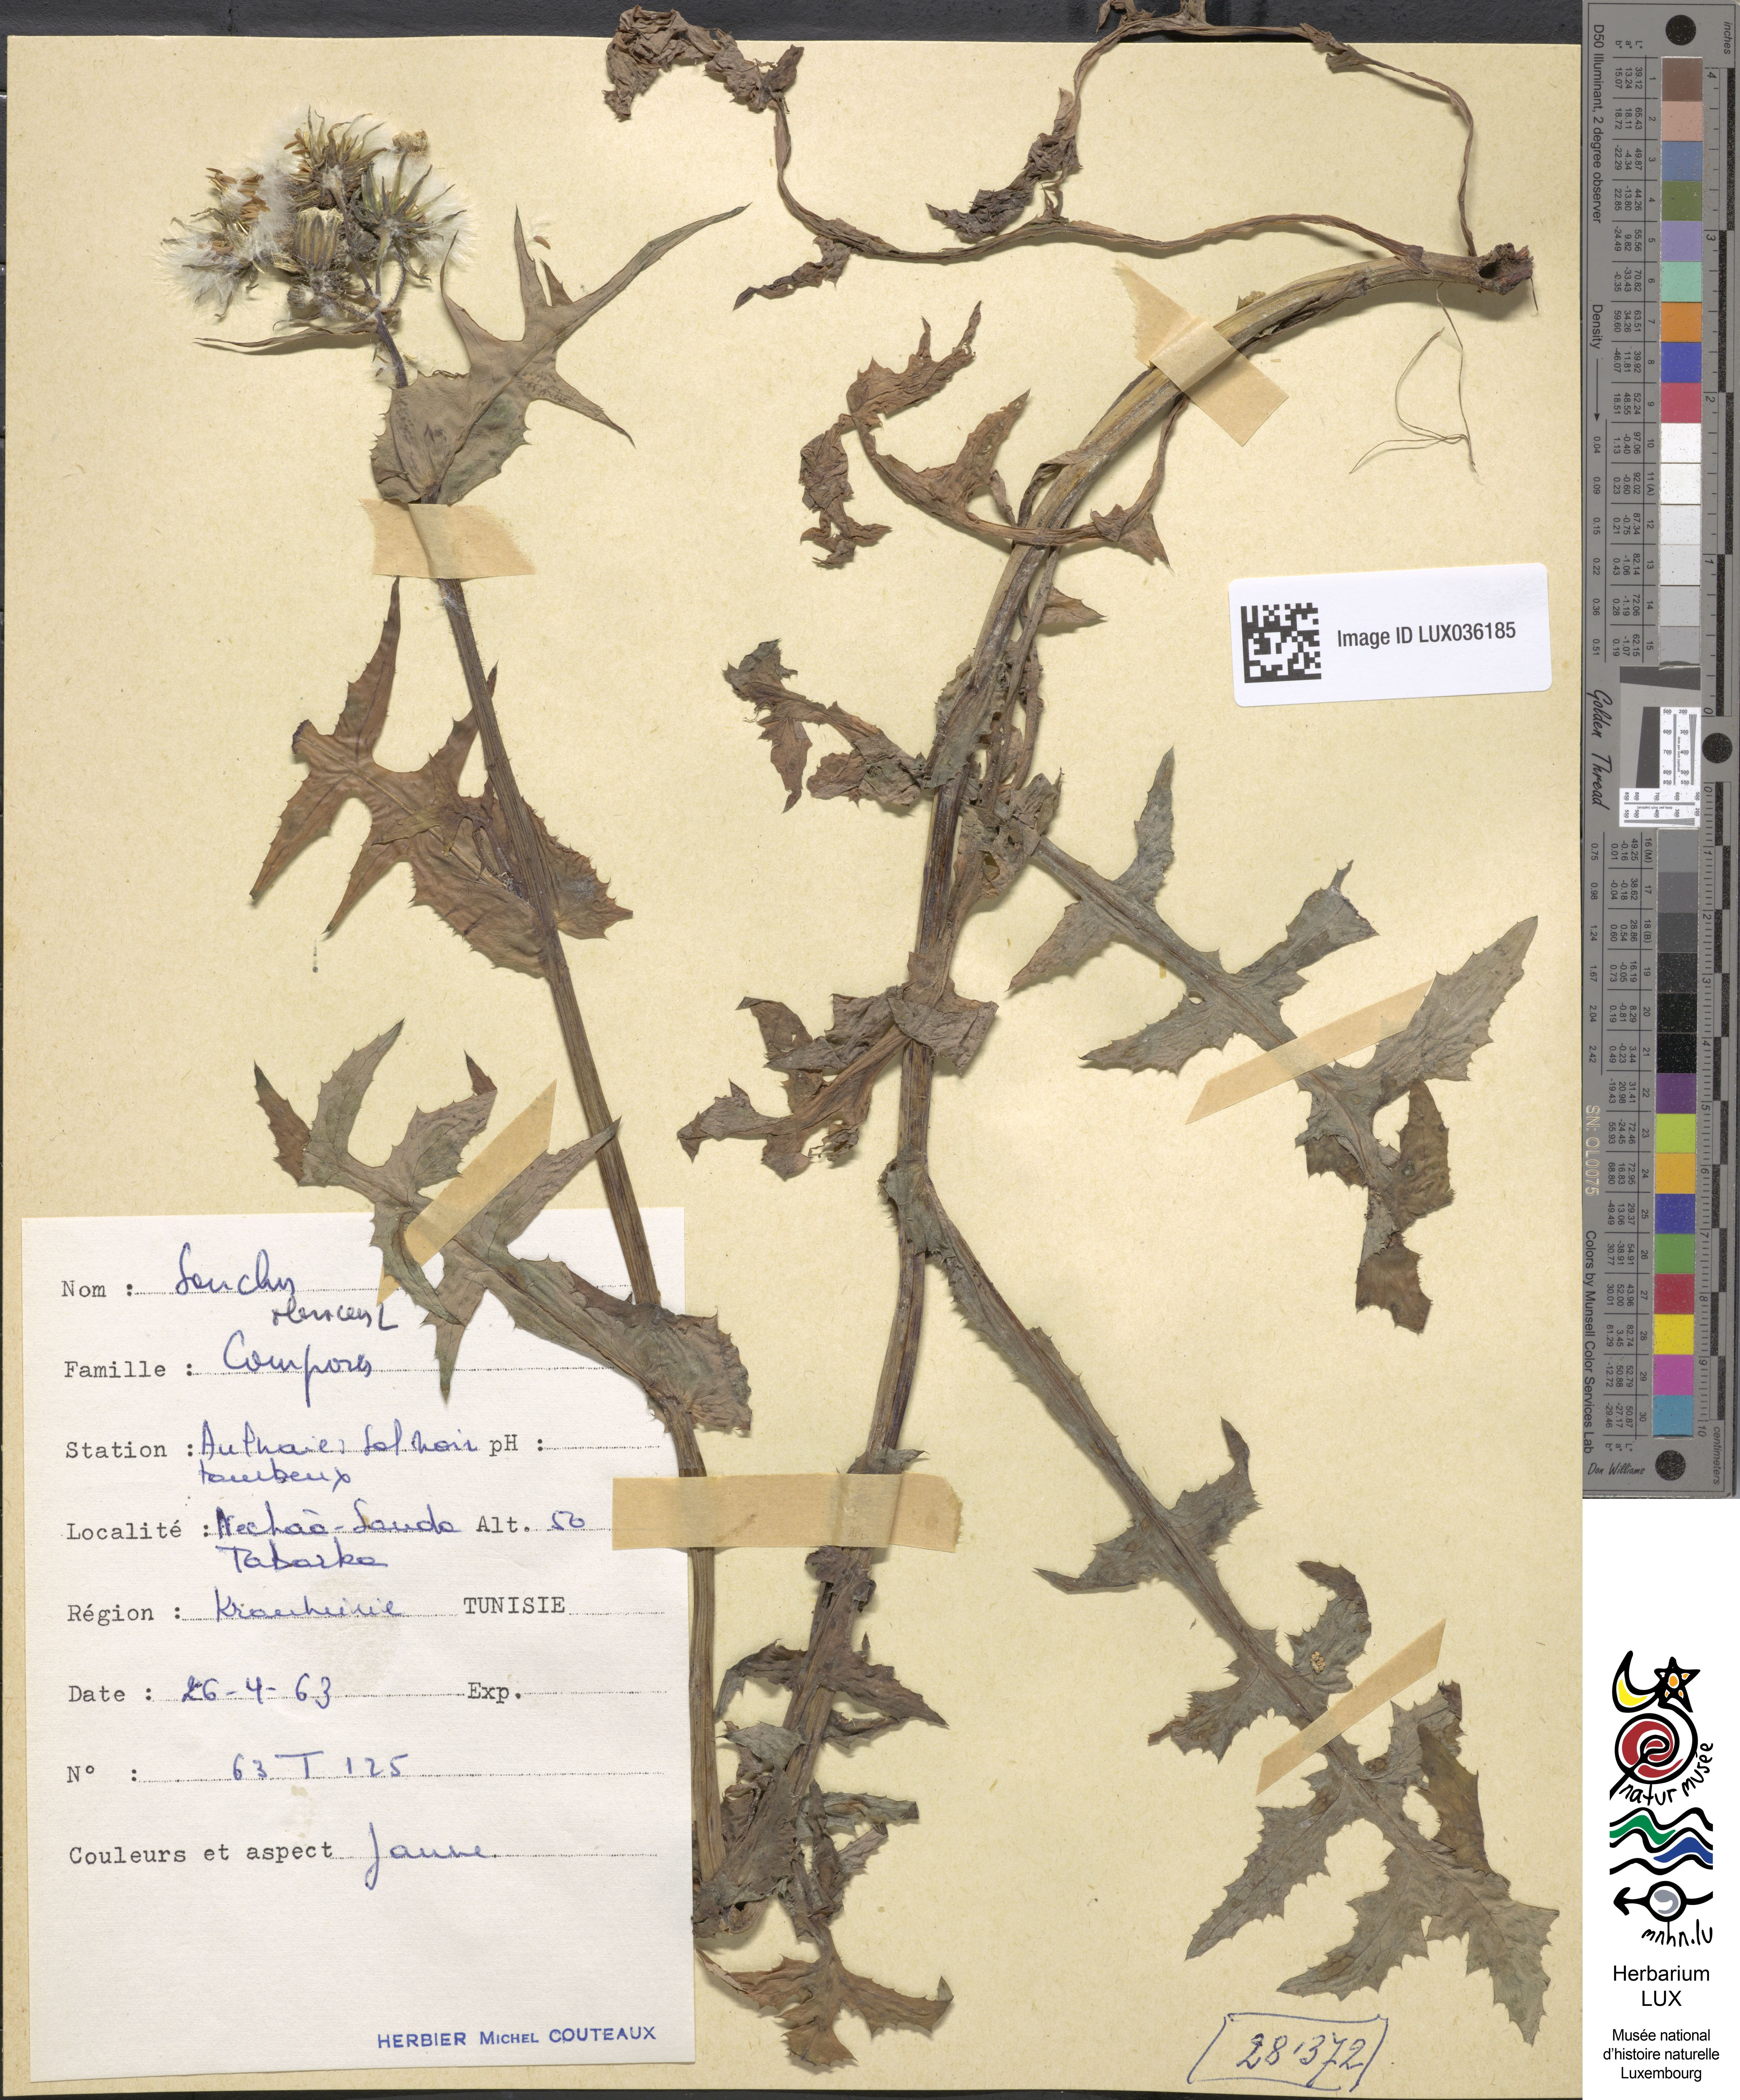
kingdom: Plantae
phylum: Tracheophyta
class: Magnoliopsida
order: Asterales
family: Asteraceae
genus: Sonchus
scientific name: Sonchus oleraceus
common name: Common sowthistle
